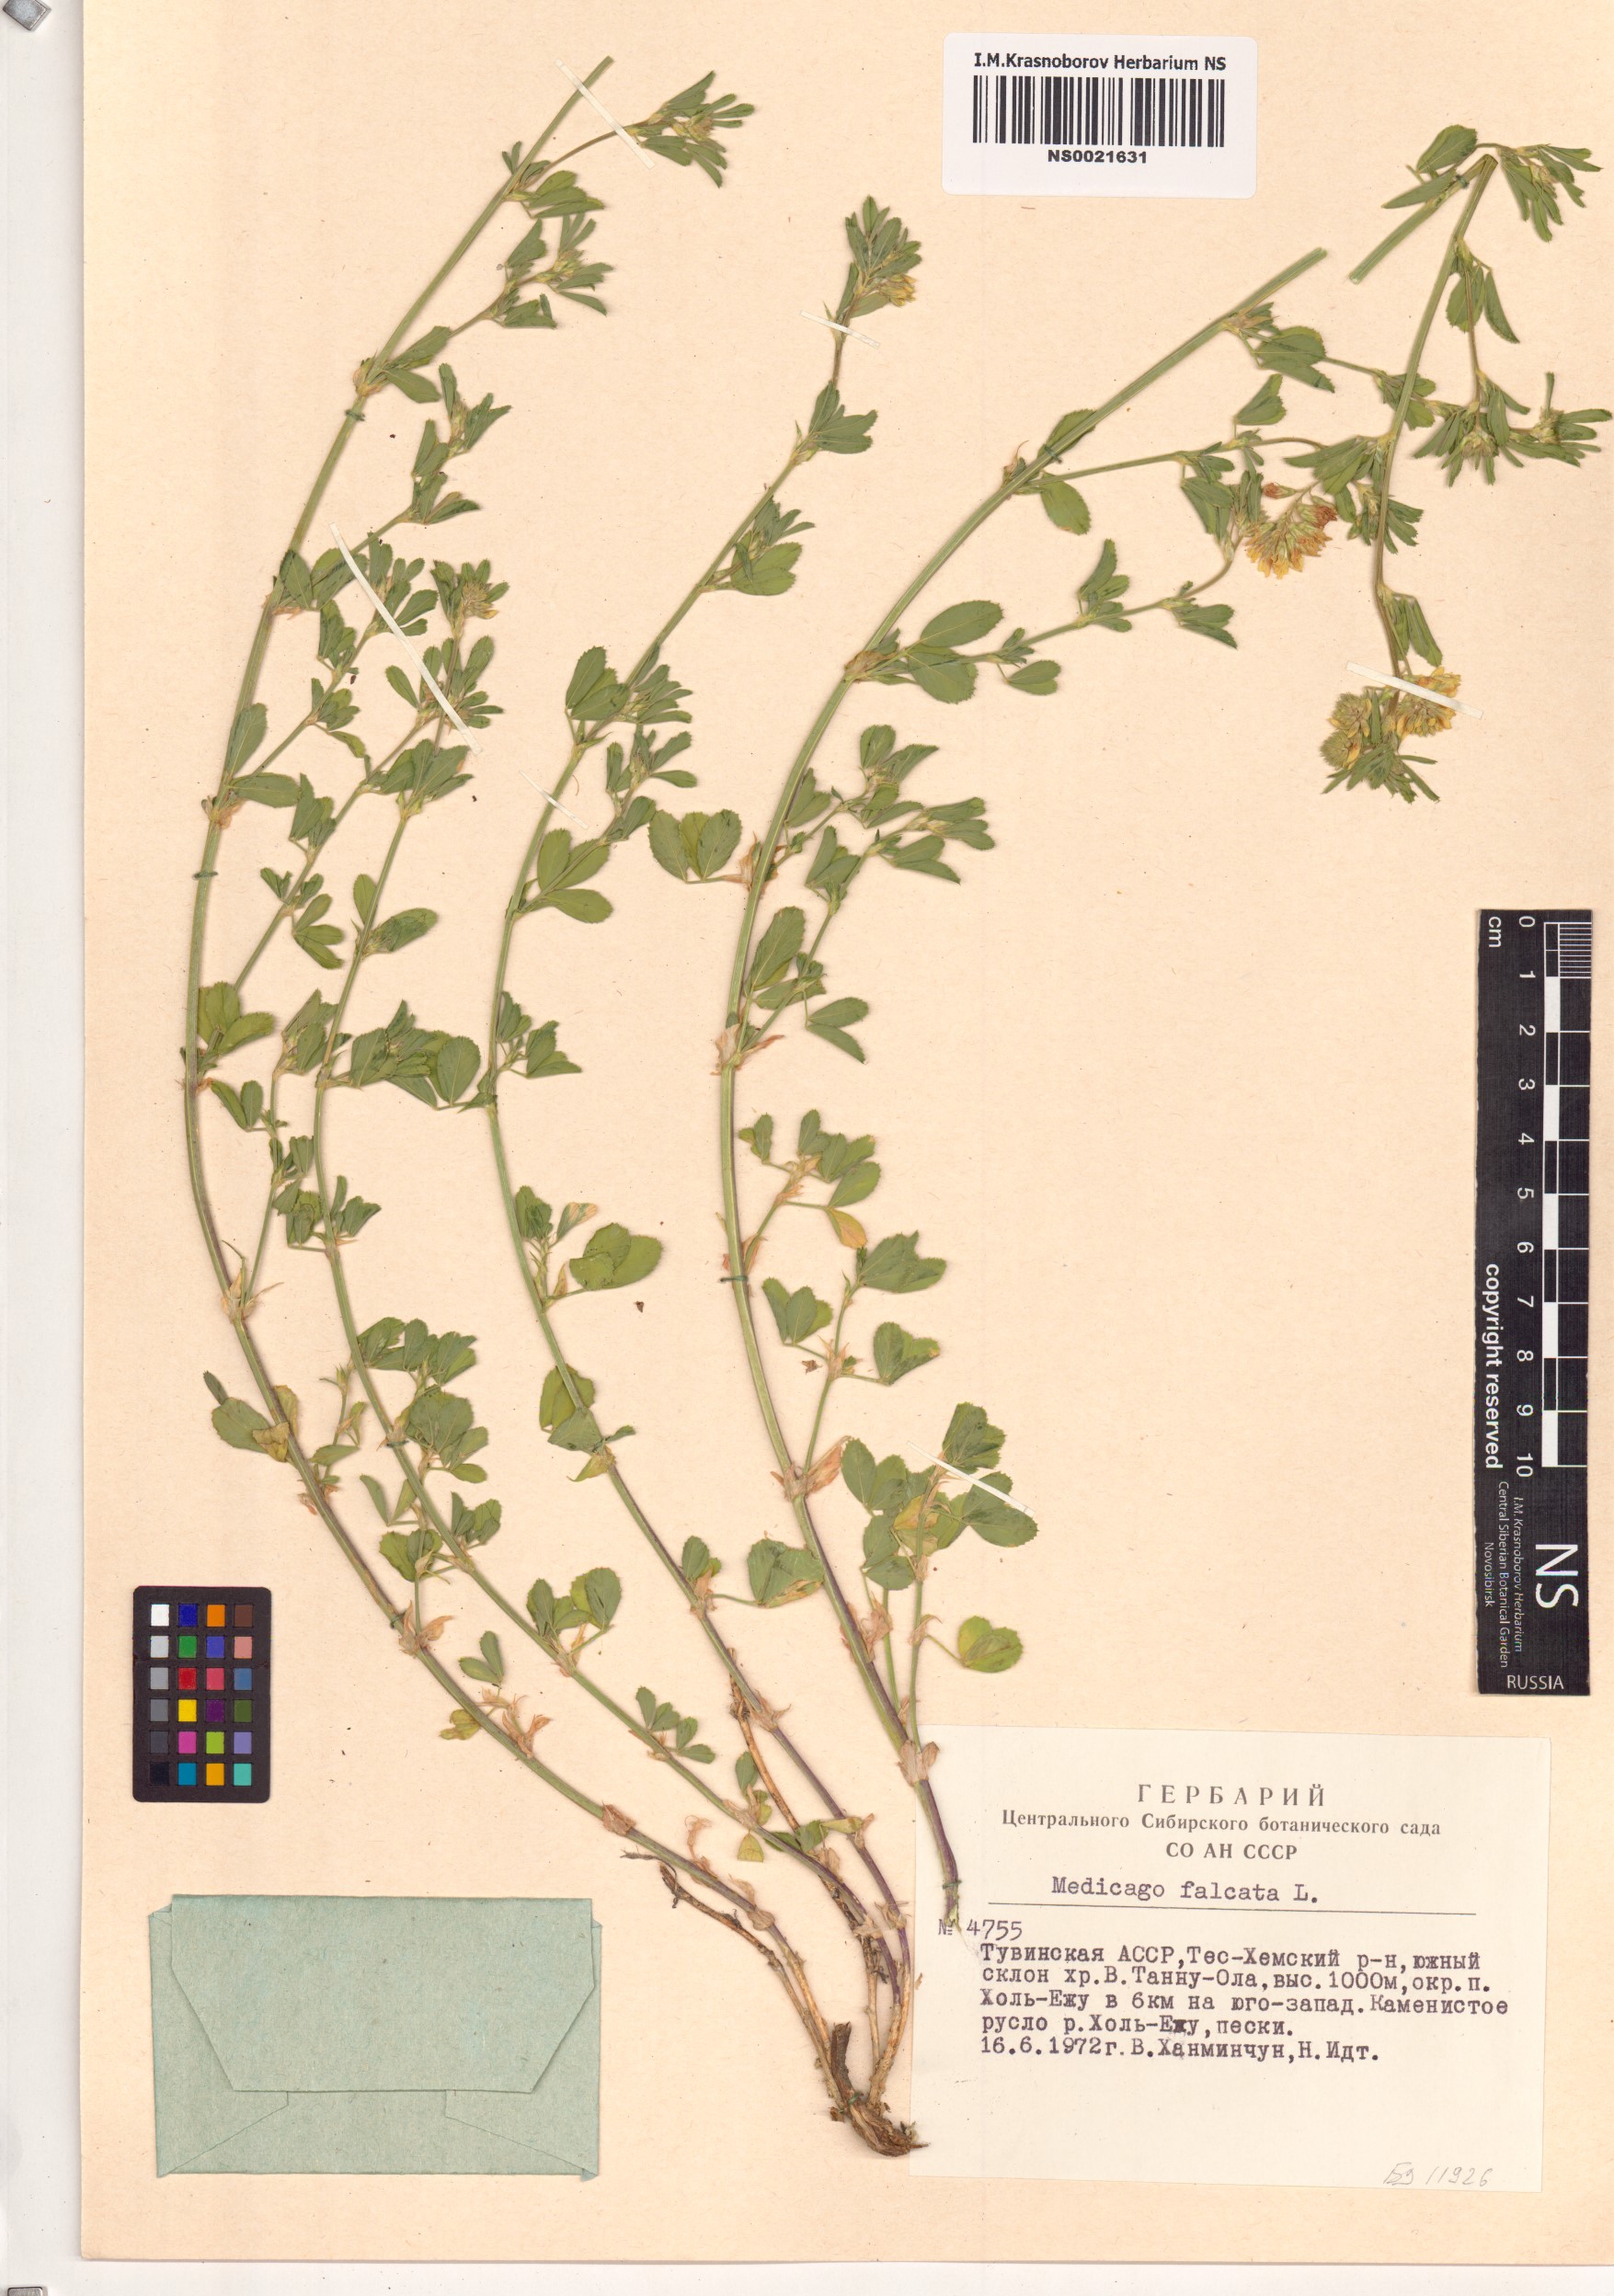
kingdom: Plantae
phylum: Tracheophyta
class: Magnoliopsida
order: Fabales
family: Fabaceae
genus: Medicago
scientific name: Medicago falcata
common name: Sickle medick
